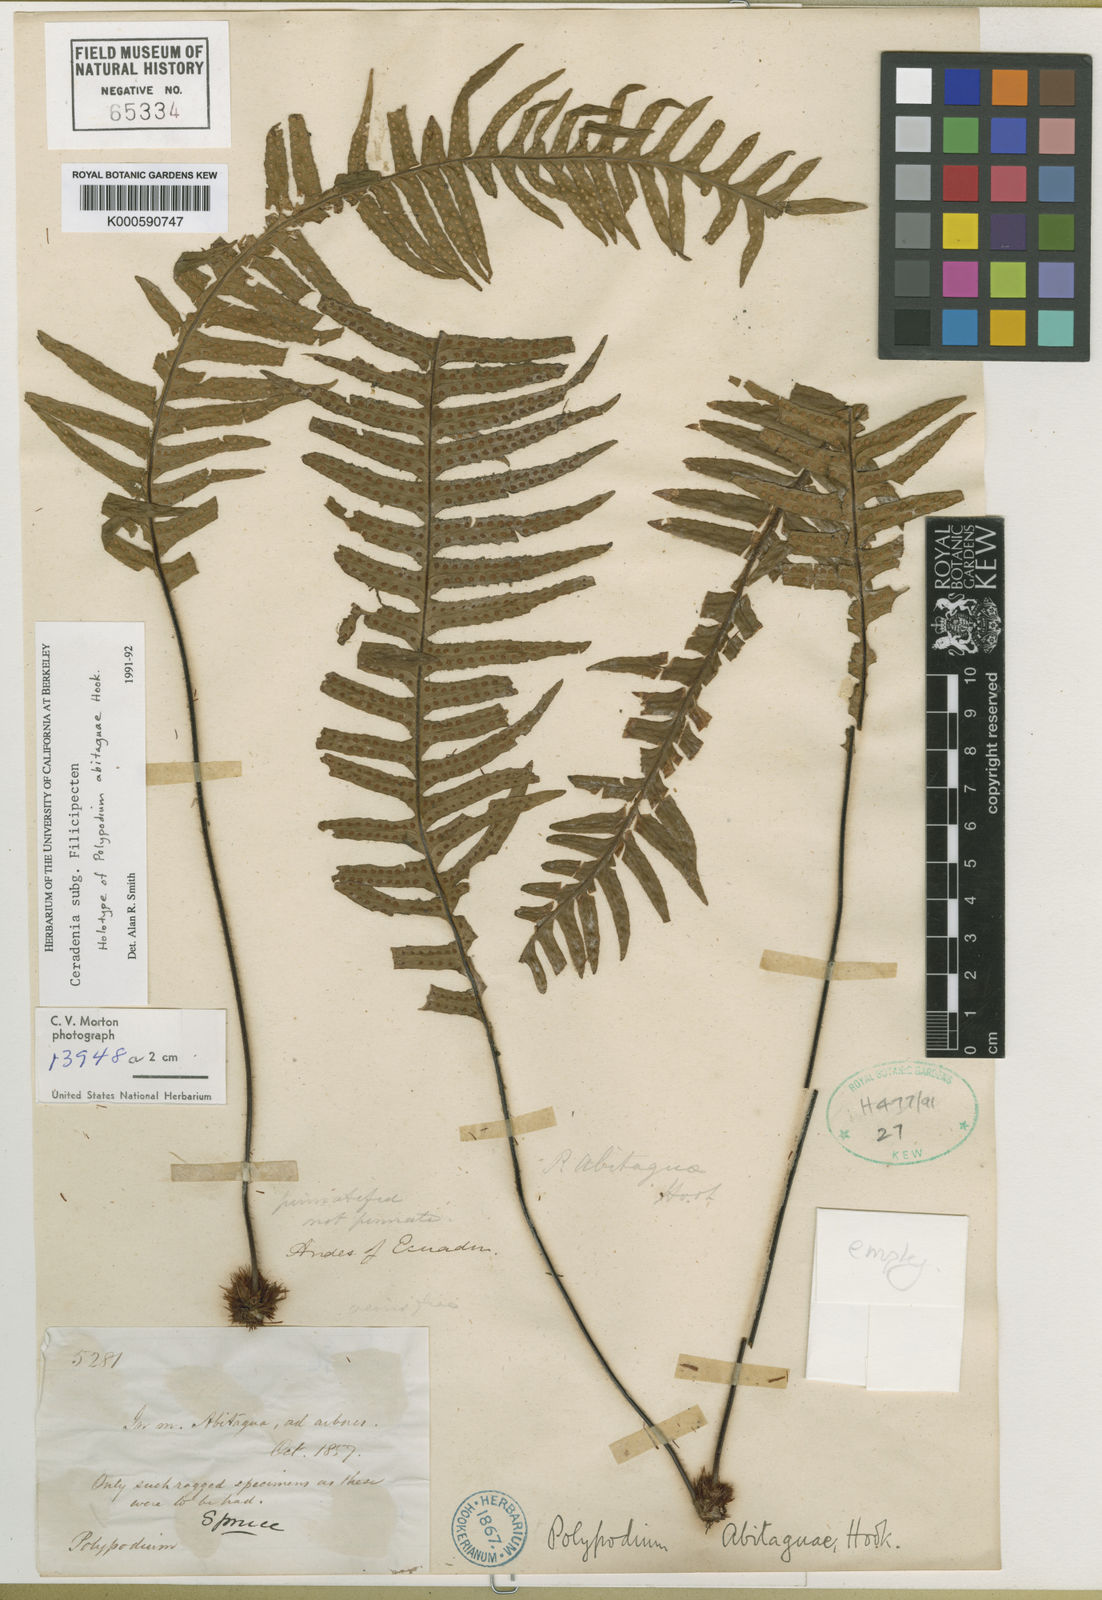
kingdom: Plantae
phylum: Tracheophyta
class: Polypodiopsida
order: Polypodiales
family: Polypodiaceae
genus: Ceradenia
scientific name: Ceradenia
